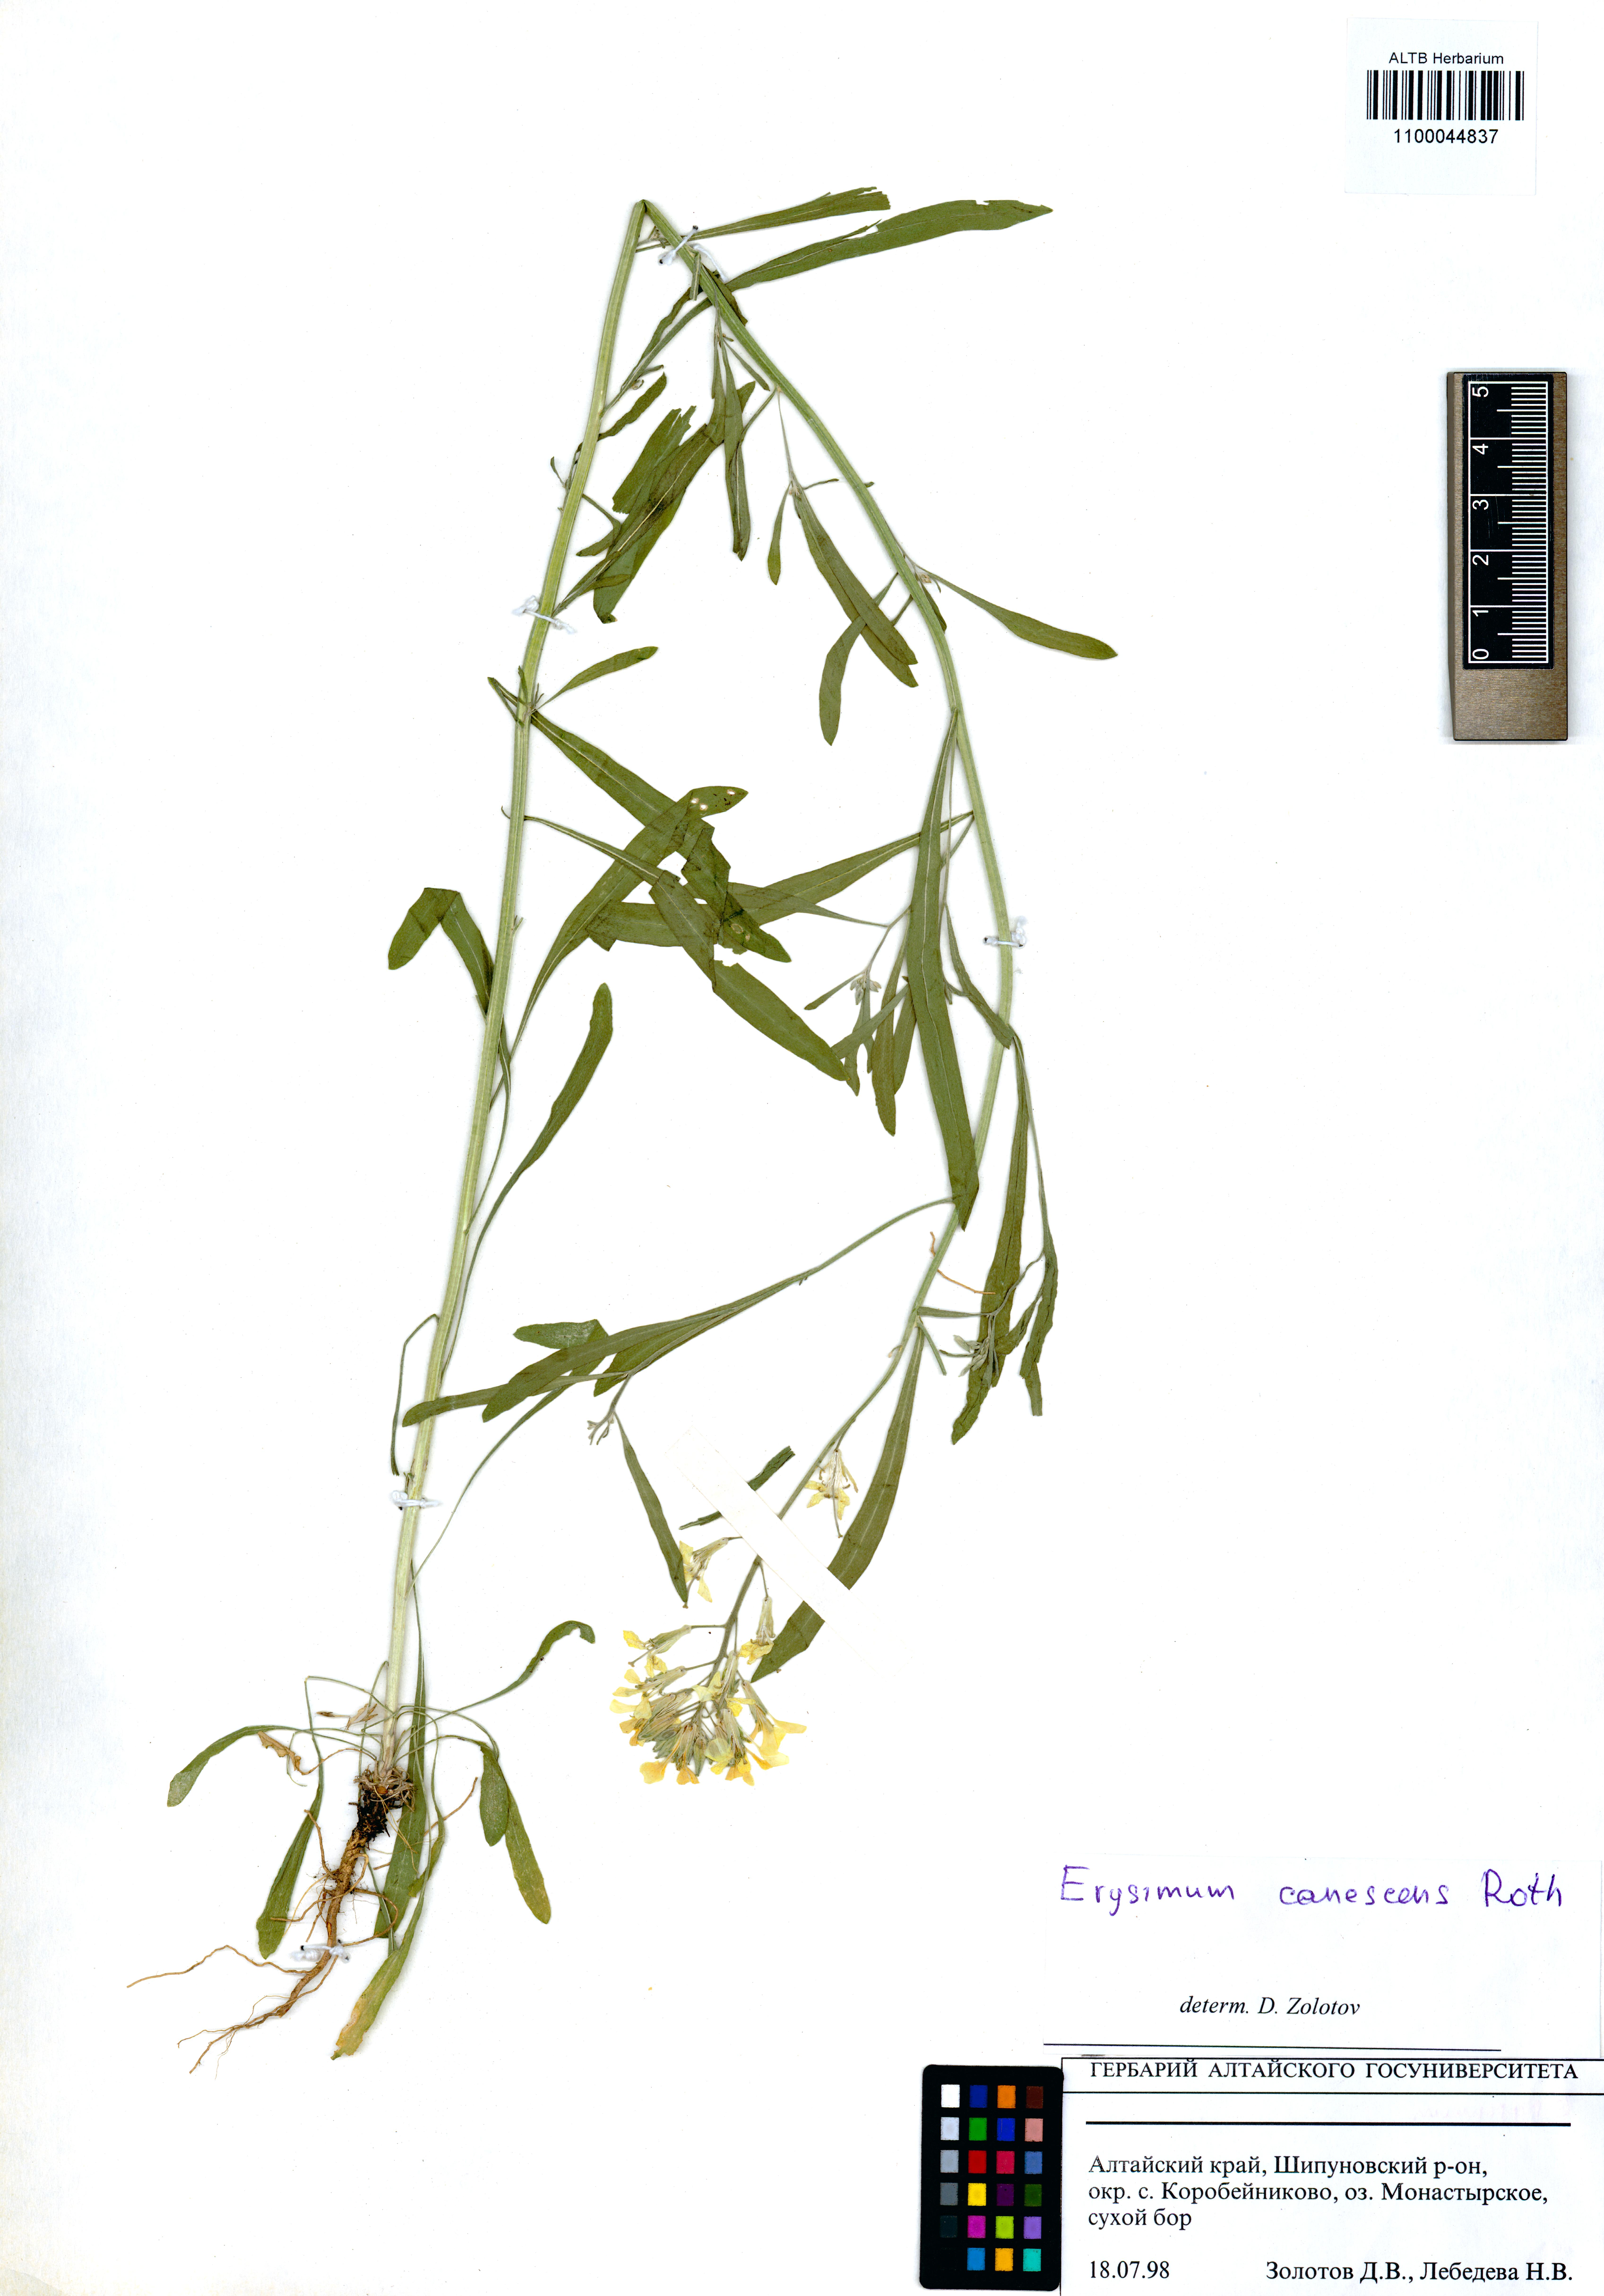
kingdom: Plantae
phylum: Tracheophyta
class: Magnoliopsida
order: Brassicales
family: Brassicaceae
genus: Erysimum
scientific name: Erysimum canescens
